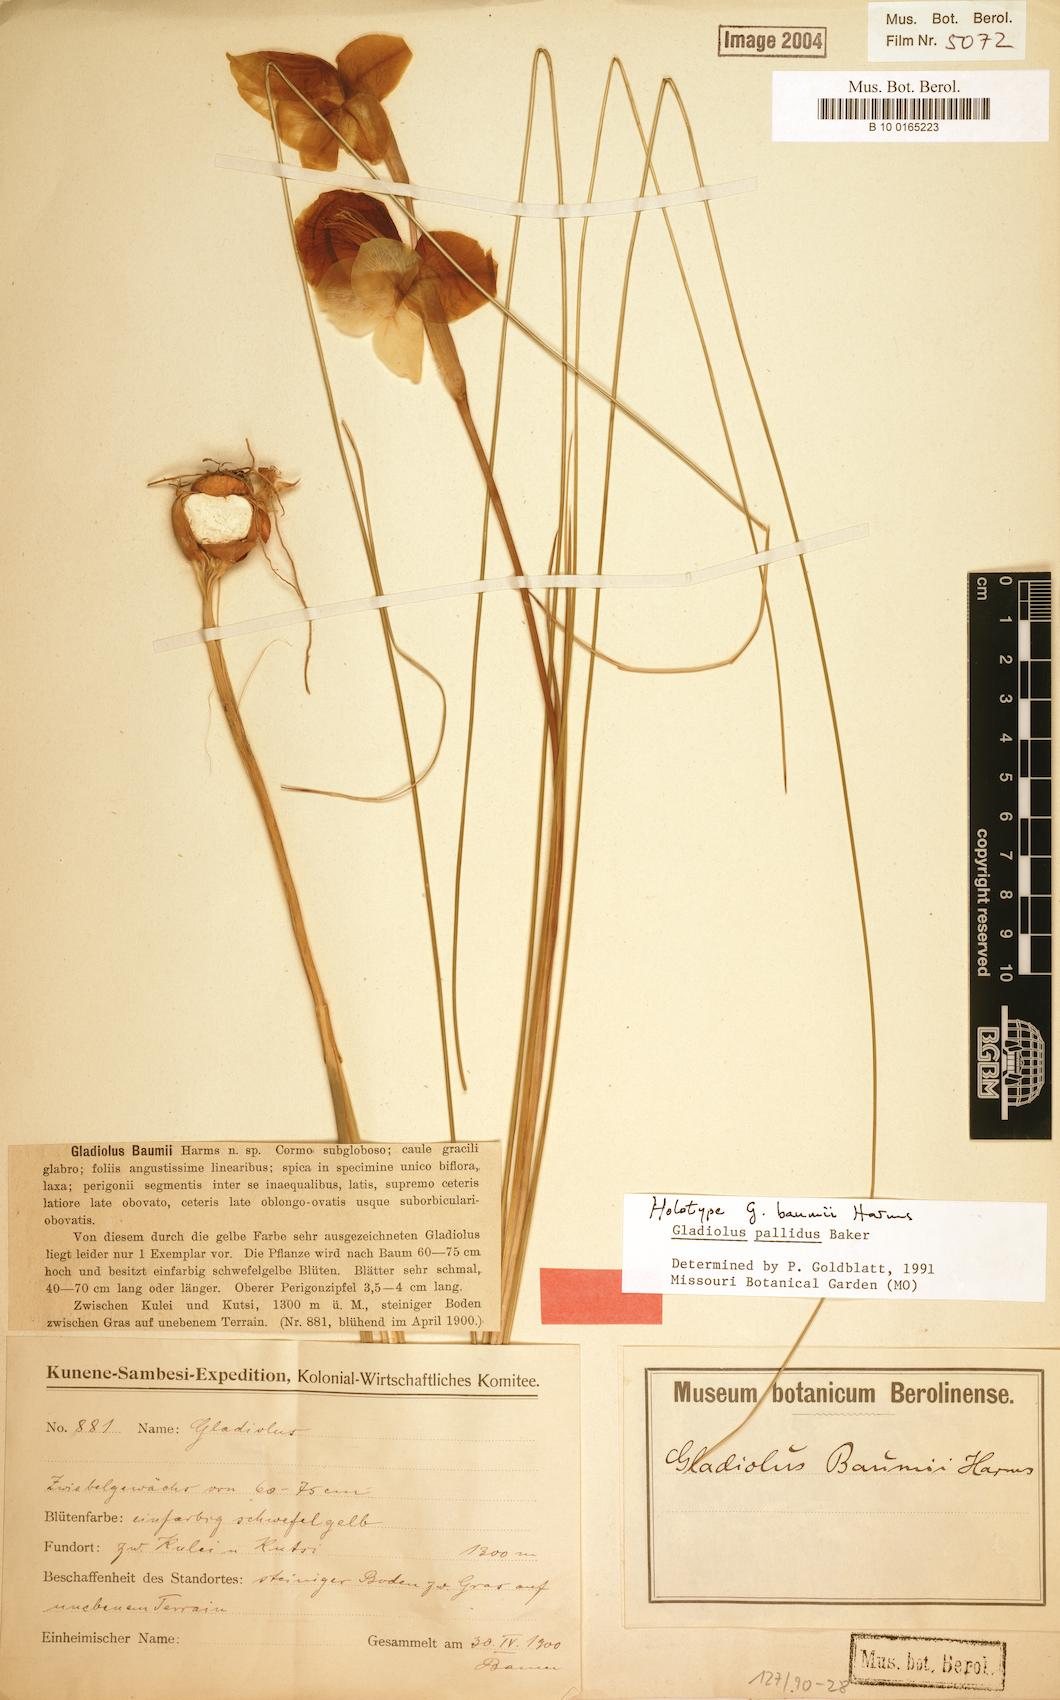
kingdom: Plantae
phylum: Tracheophyta
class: Liliopsida
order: Asparagales
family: Iridaceae
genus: Gladiolus
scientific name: Gladiolus baumii
